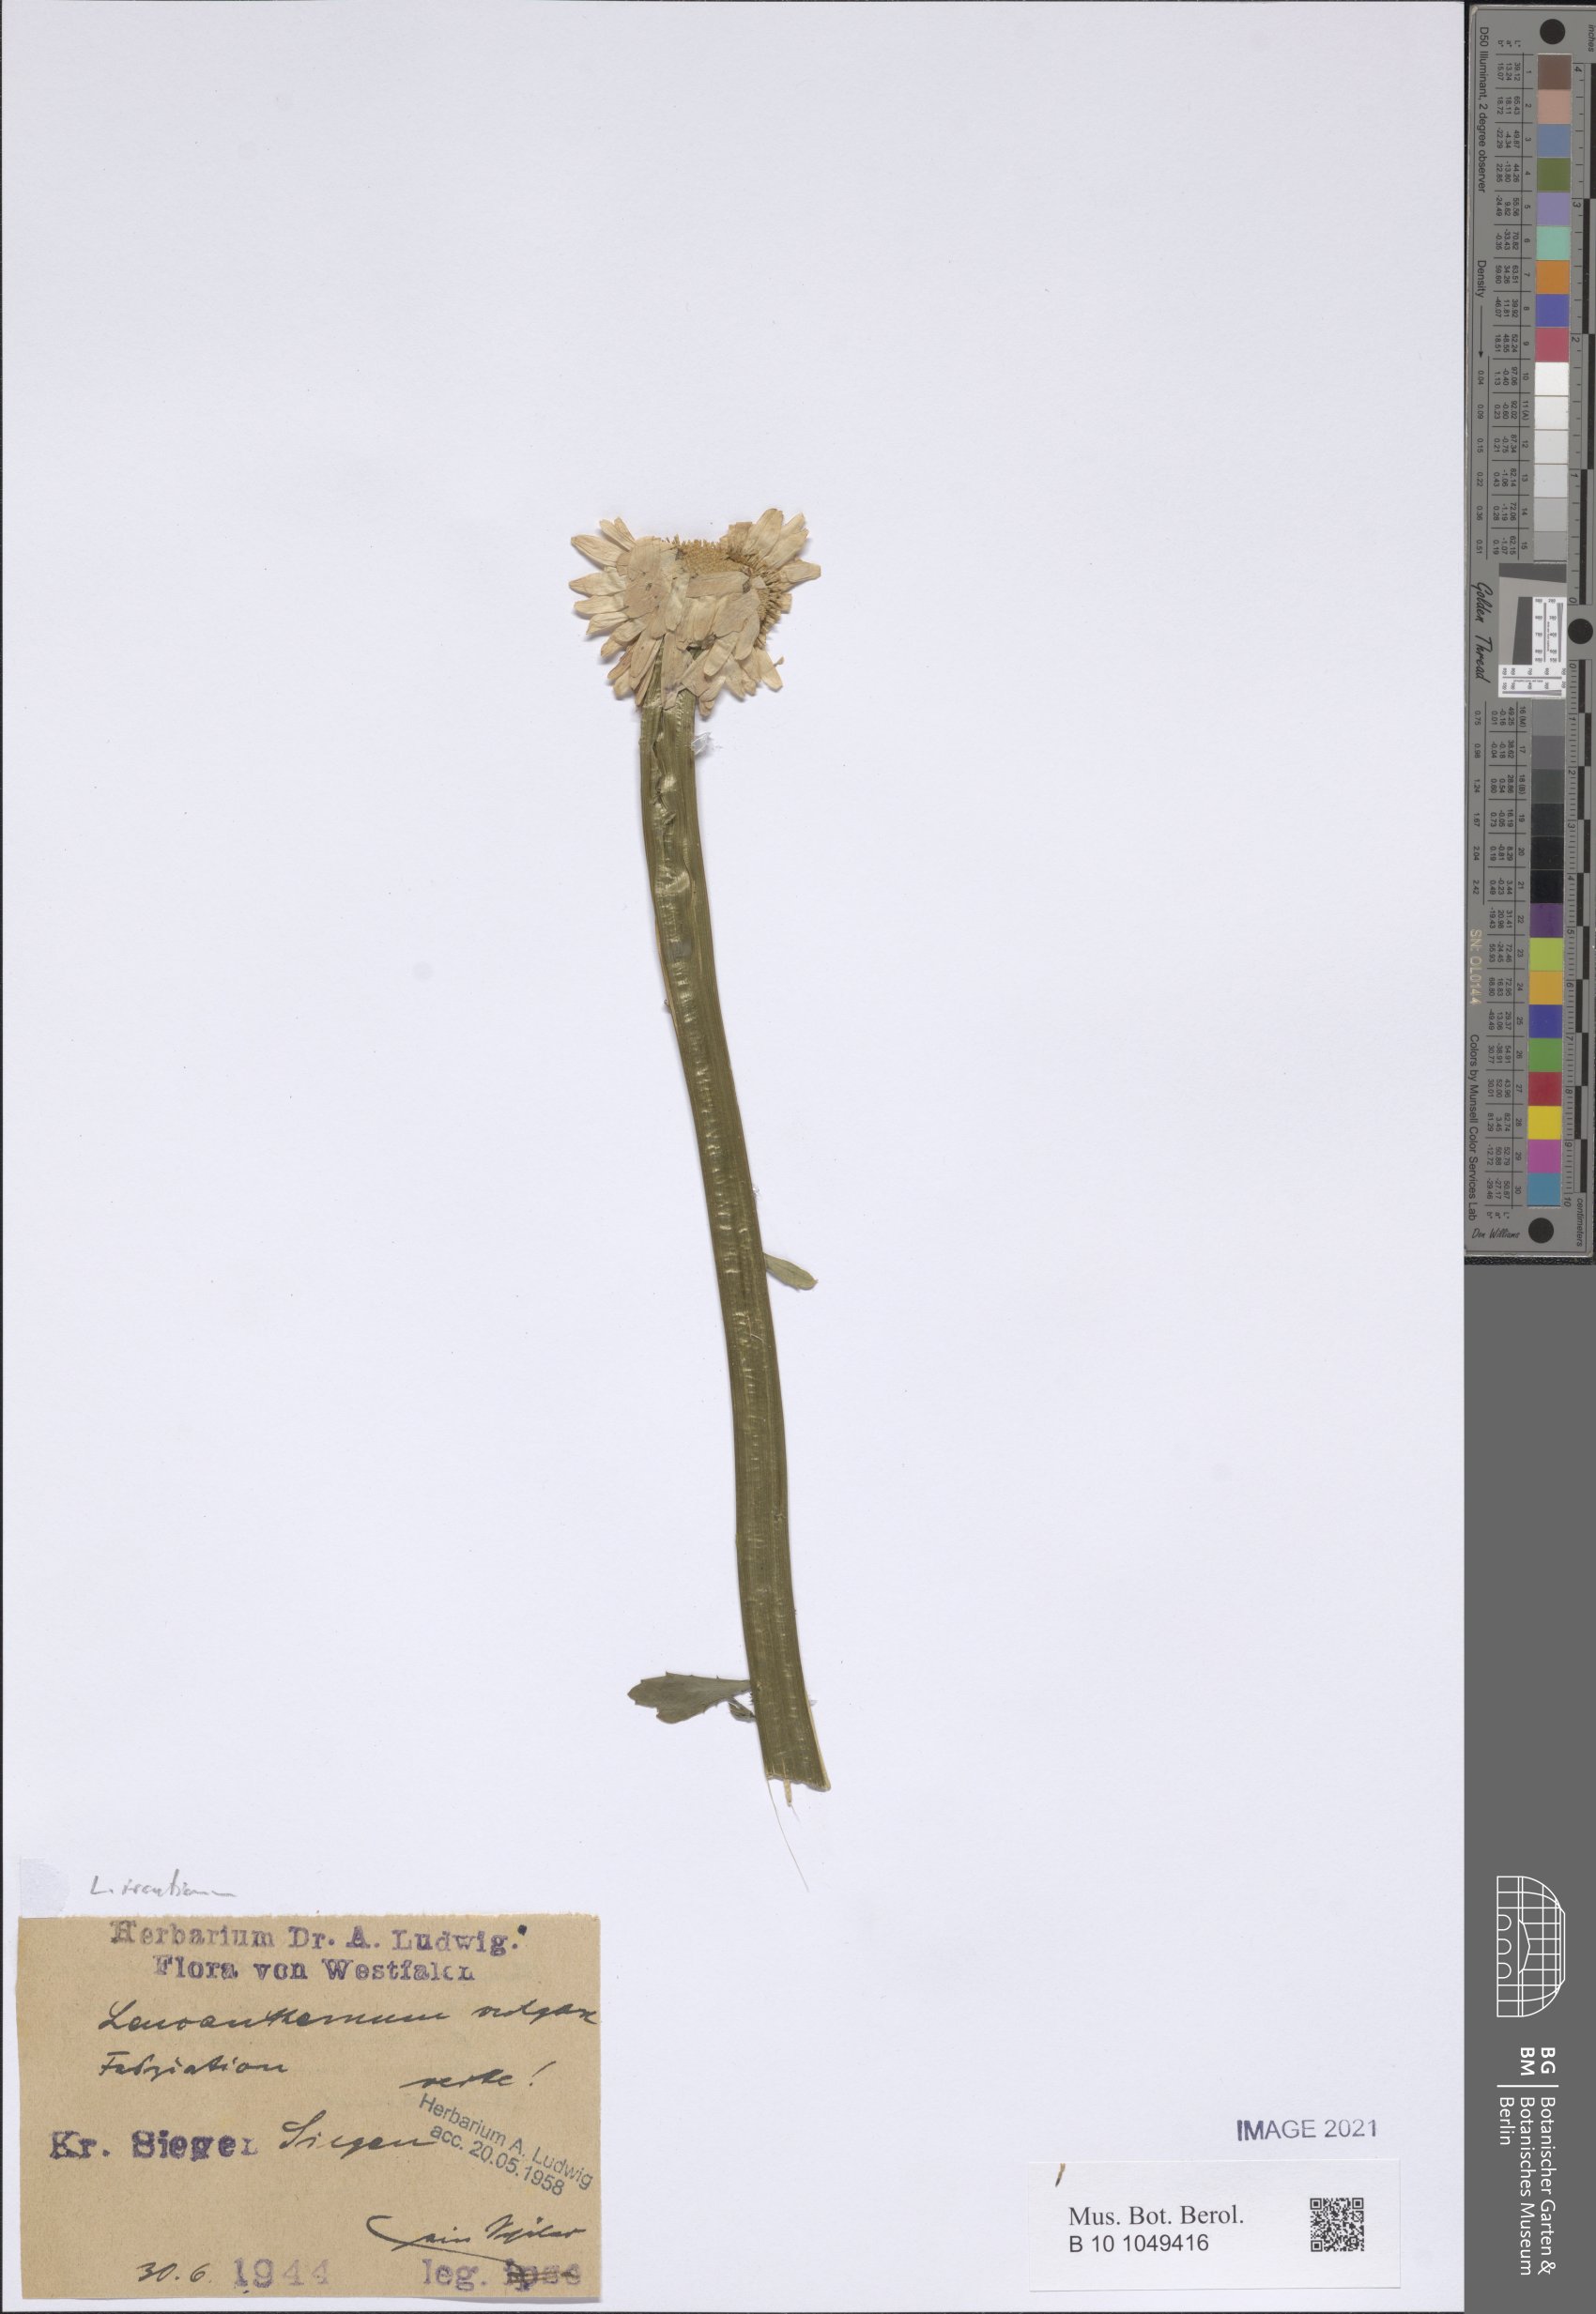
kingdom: Plantae
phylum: Tracheophyta
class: Magnoliopsida
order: Asterales
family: Asteraceae
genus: Leucanthemum
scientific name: Leucanthemum ircutianum
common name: Daisy
